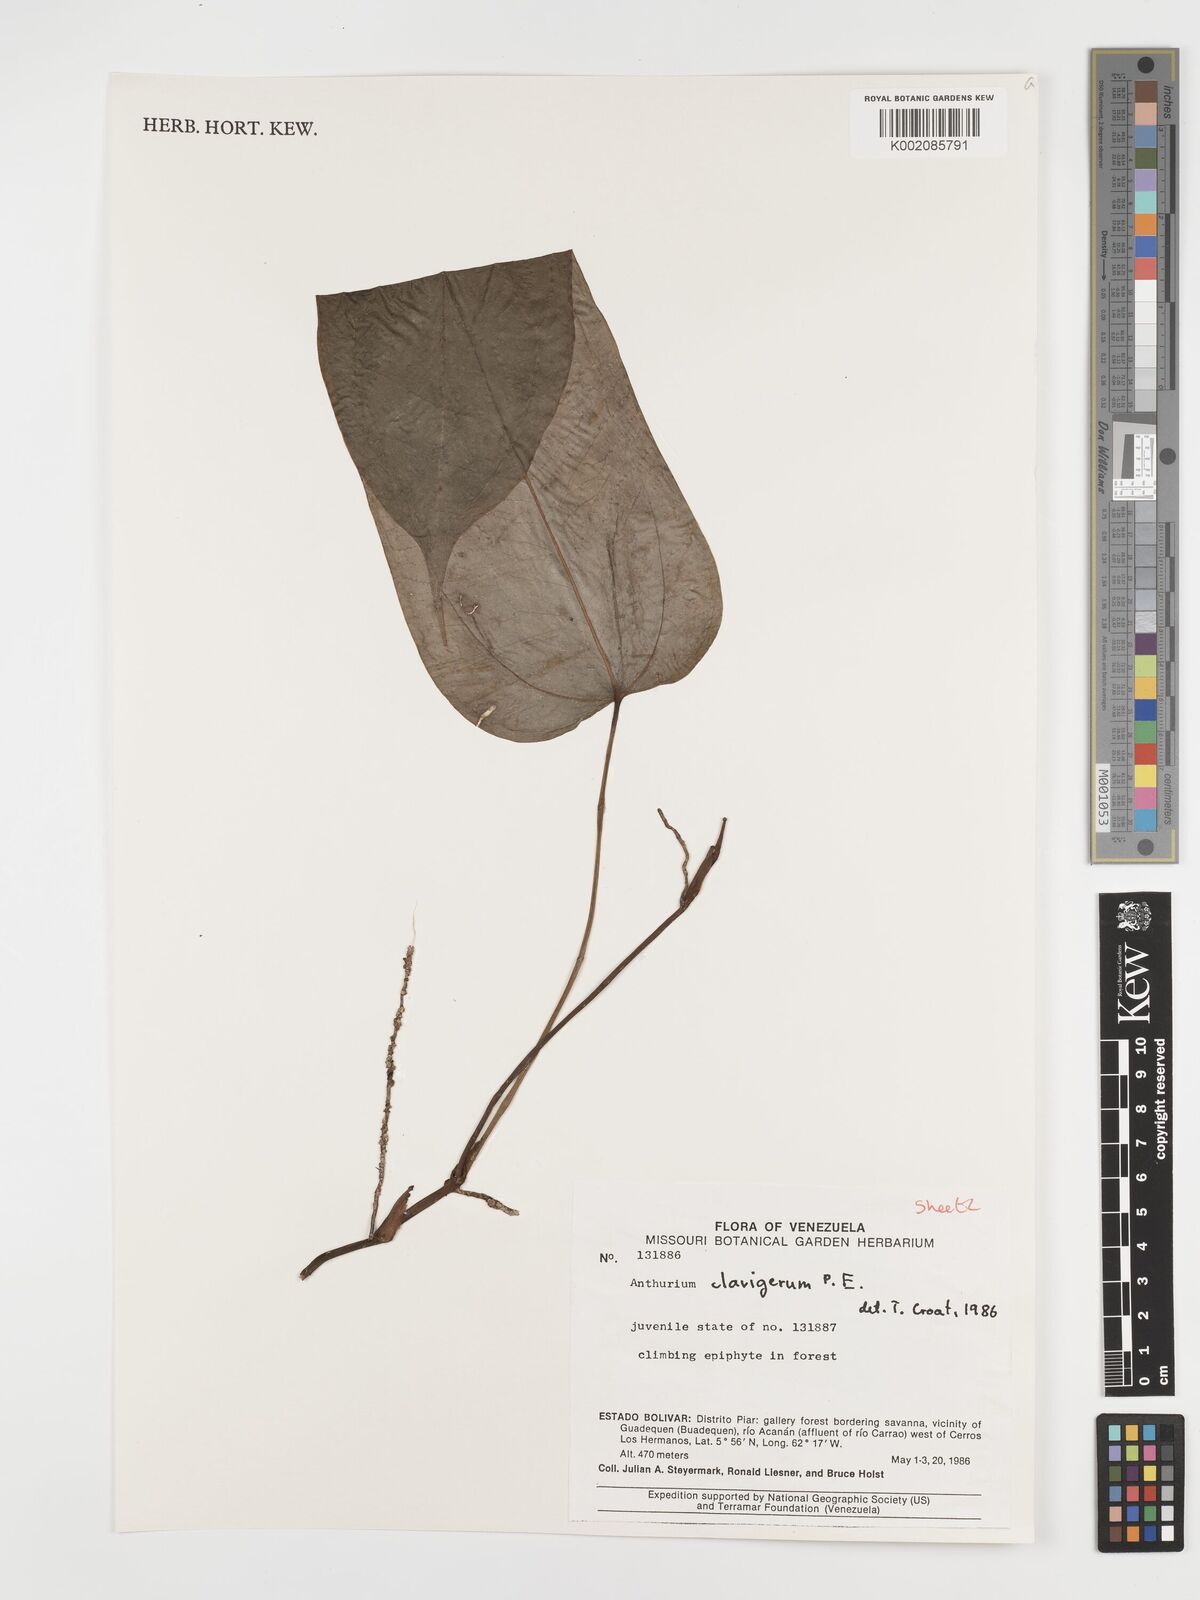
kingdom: Plantae
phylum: Tracheophyta
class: Liliopsida
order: Alismatales
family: Araceae
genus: Anthurium
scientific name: Anthurium clavigerum
